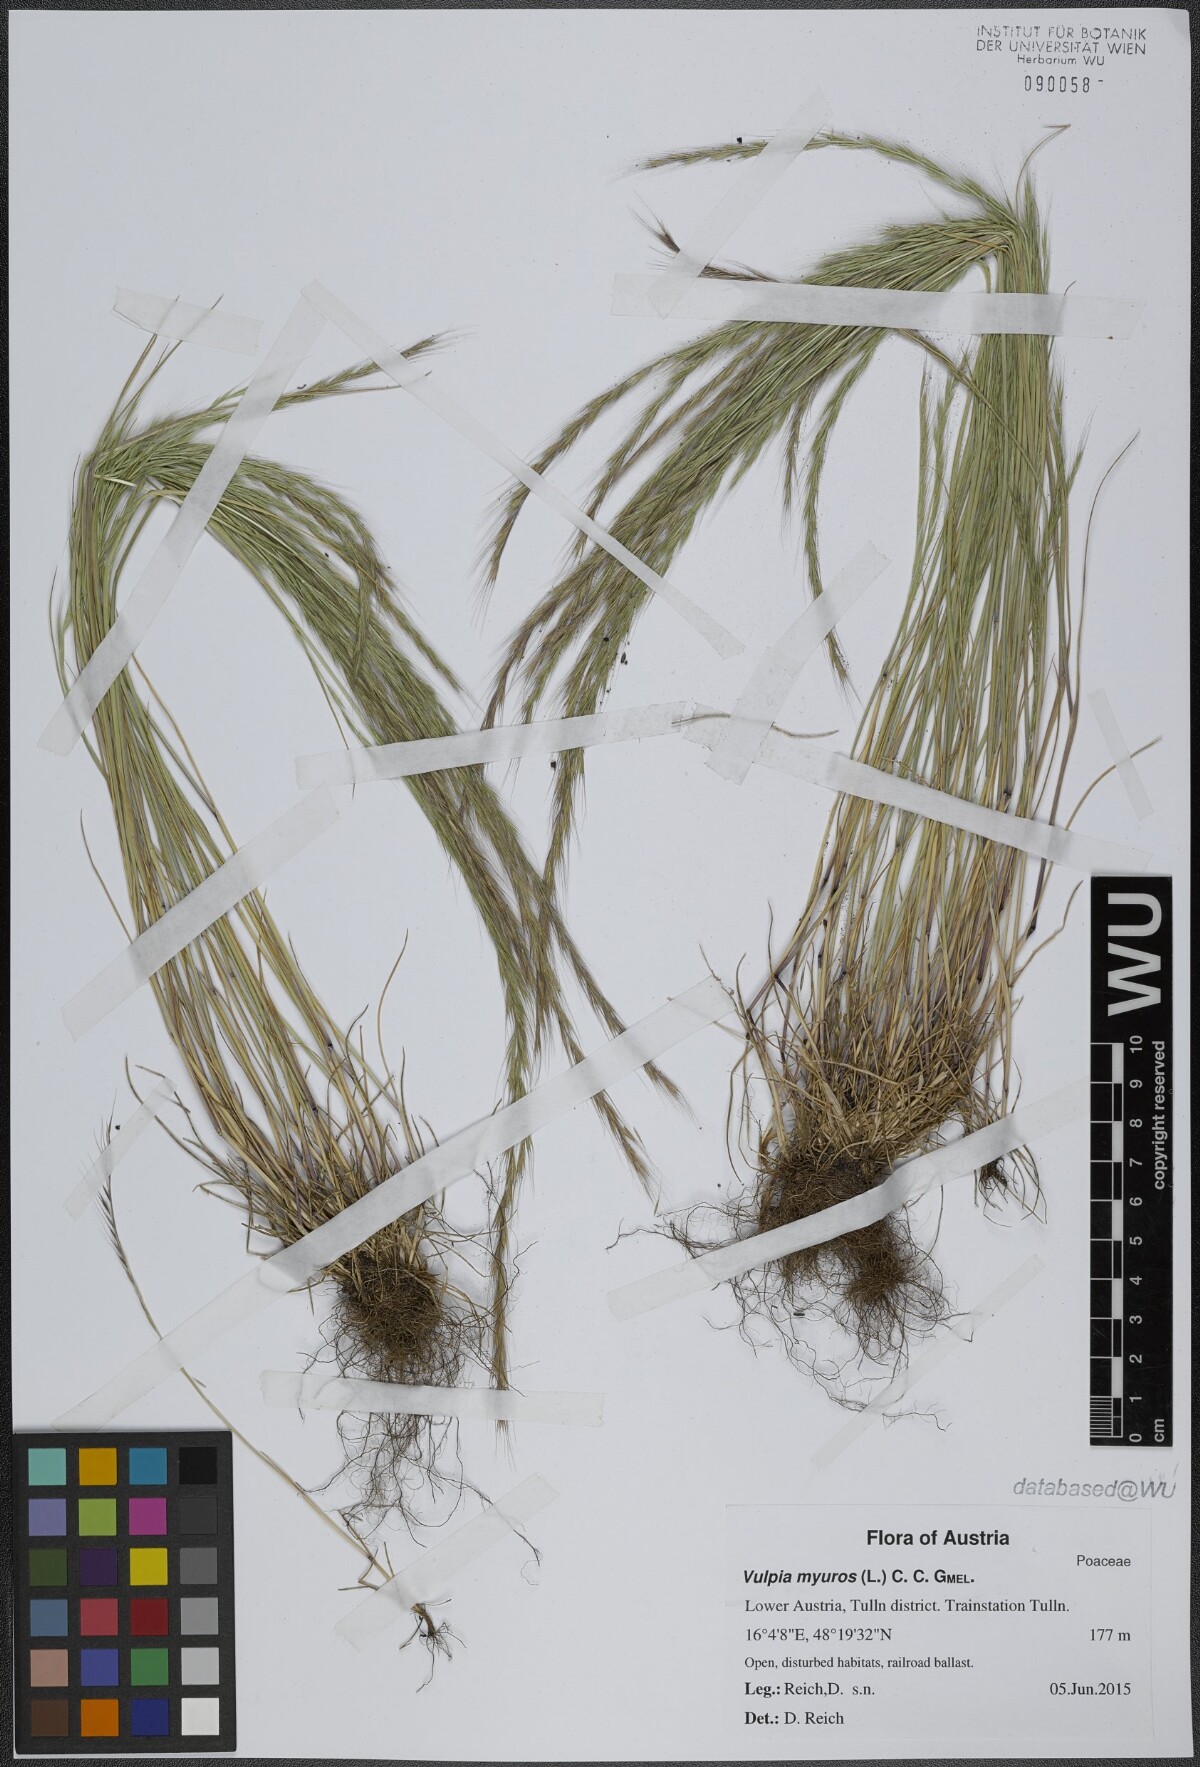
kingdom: Plantae
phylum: Tracheophyta
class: Liliopsida
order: Poales
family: Poaceae
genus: Festuca
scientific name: Festuca myuros
